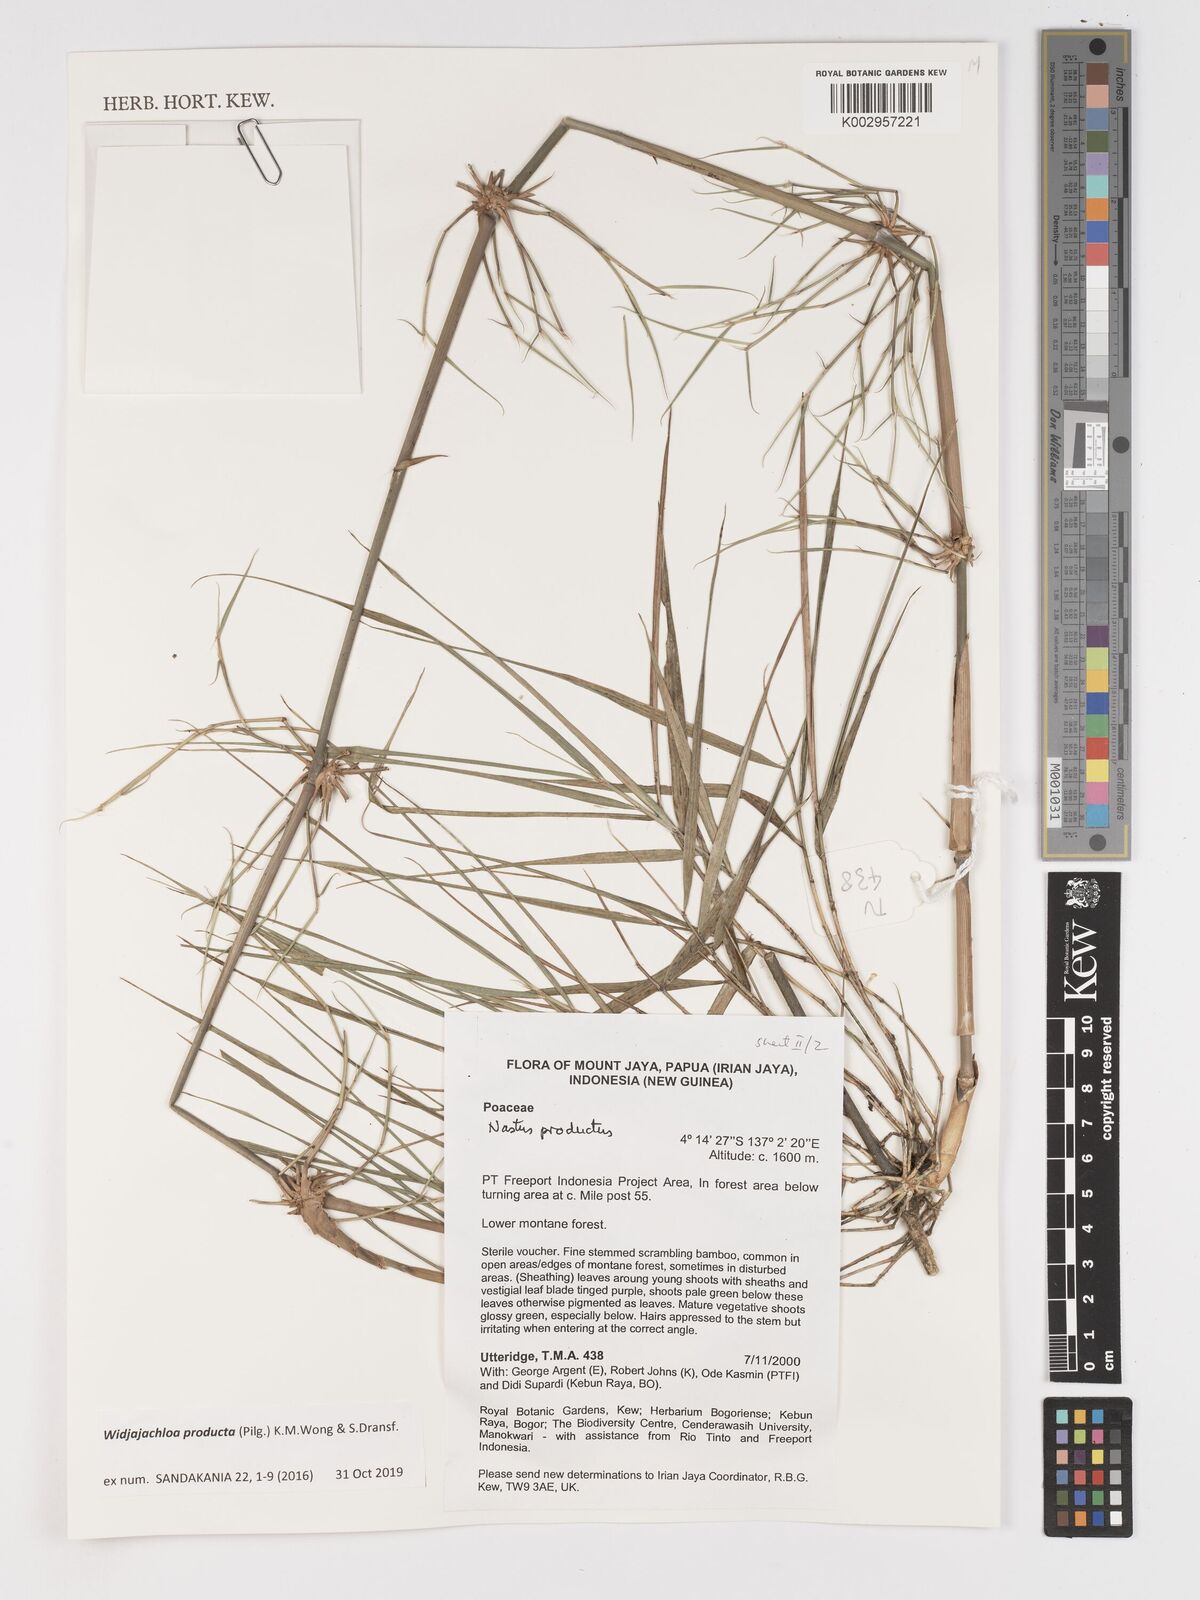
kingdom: Plantae
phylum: Tracheophyta
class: Liliopsida
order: Poales
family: Poaceae
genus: Widjajachloa
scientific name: Widjajachloa producta
